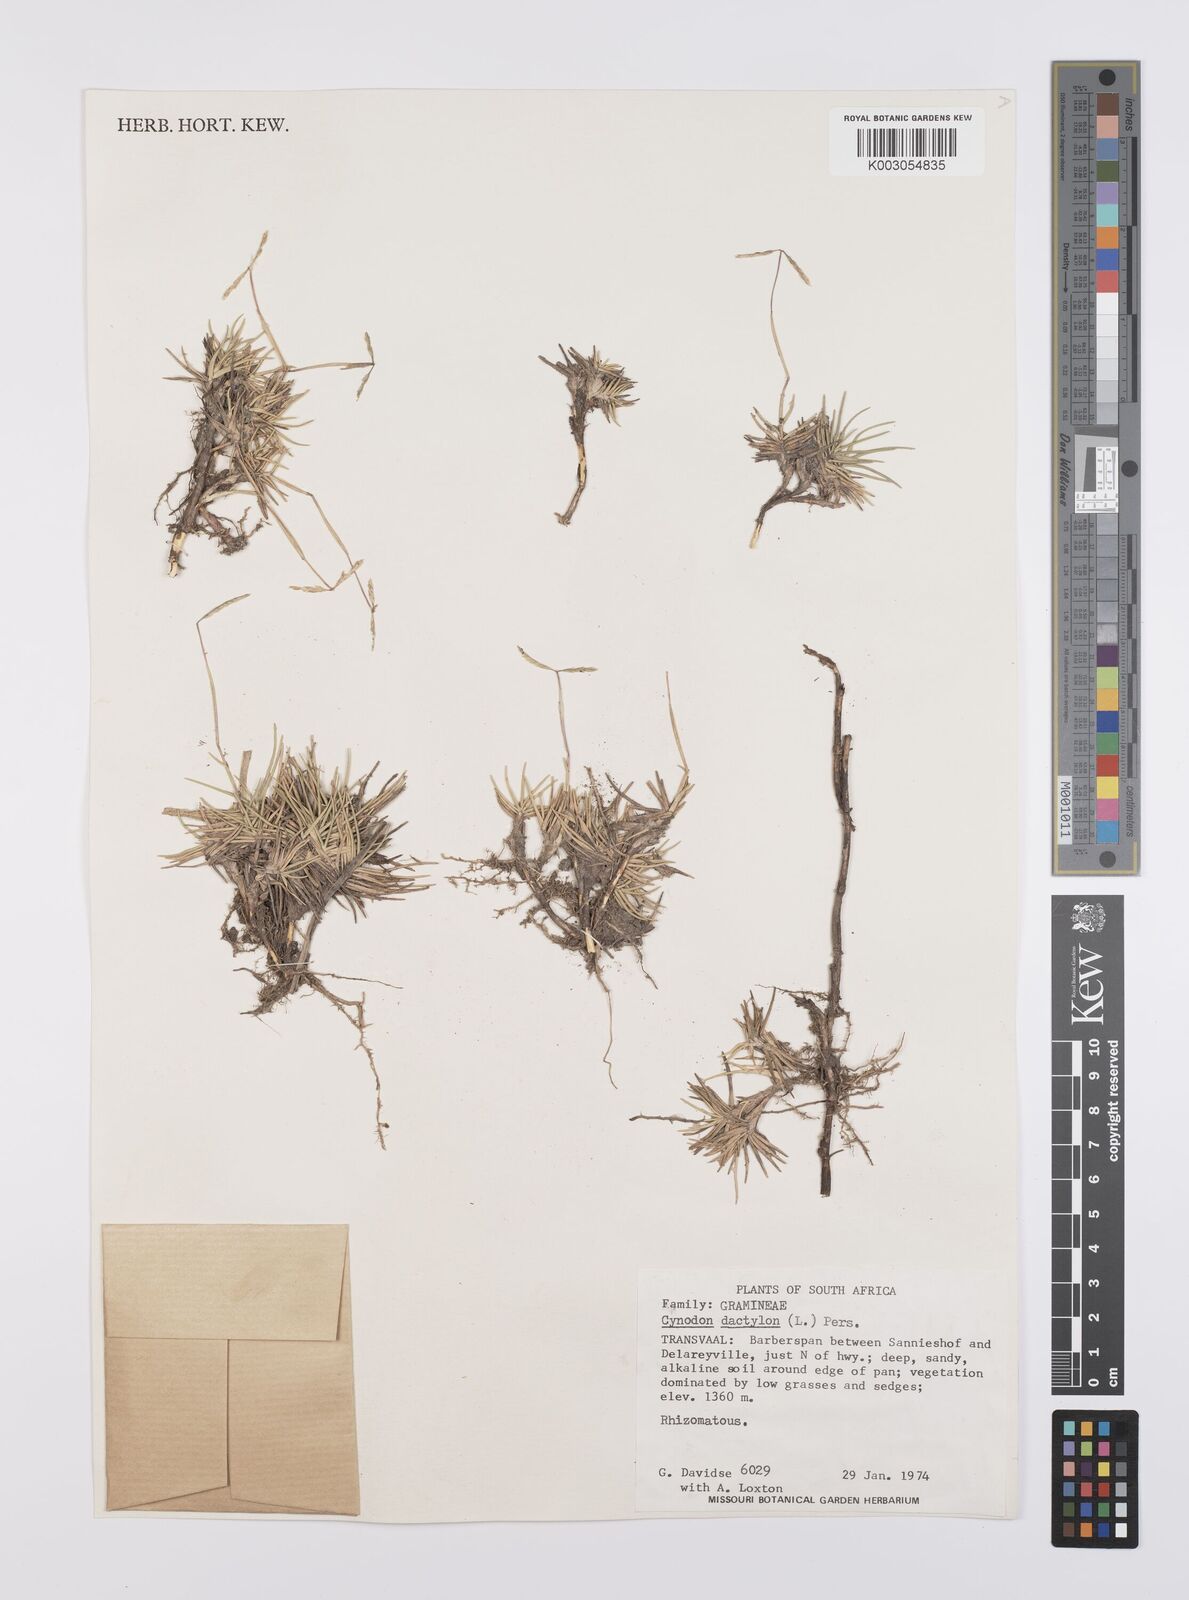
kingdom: Plantae
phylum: Tracheophyta
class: Liliopsida
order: Poales
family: Poaceae
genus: Cynodon
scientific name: Cynodon dactylon
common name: Bermuda grass
